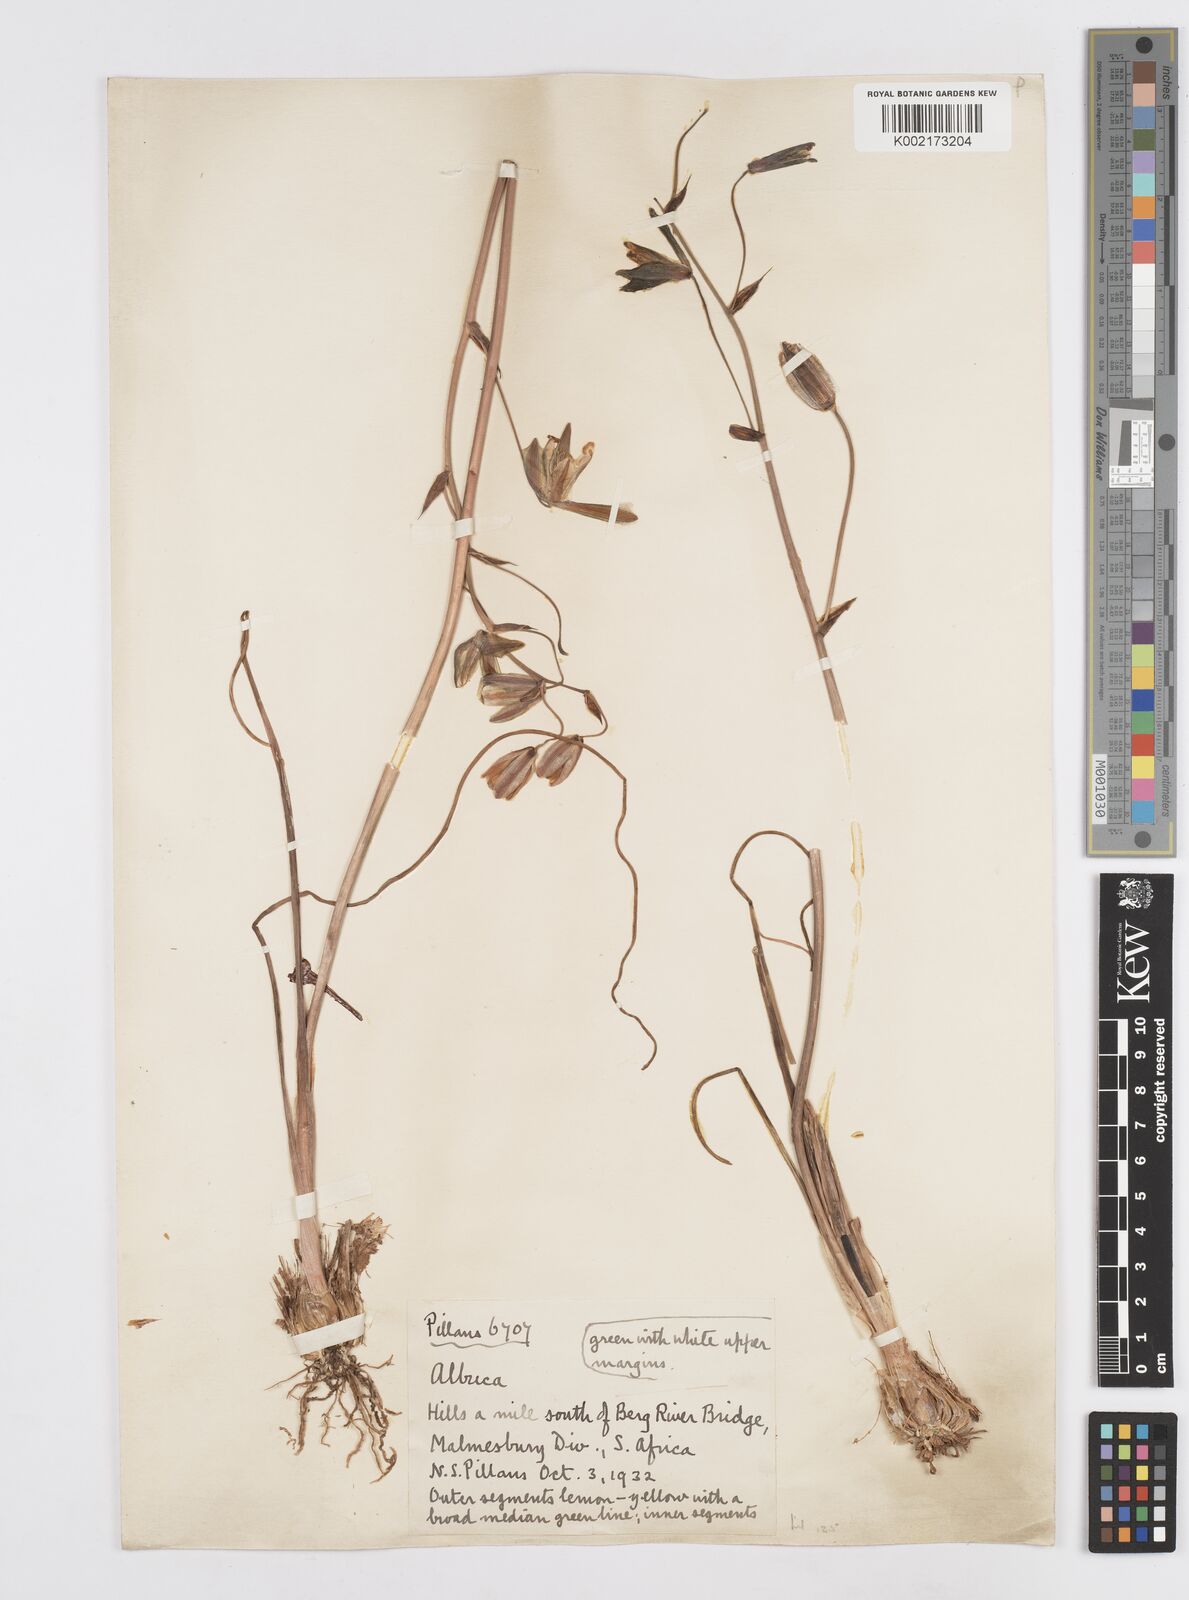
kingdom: Plantae
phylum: Tracheophyta
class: Liliopsida
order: Asparagales
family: Asparagaceae
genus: Albuca
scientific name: Albuca
